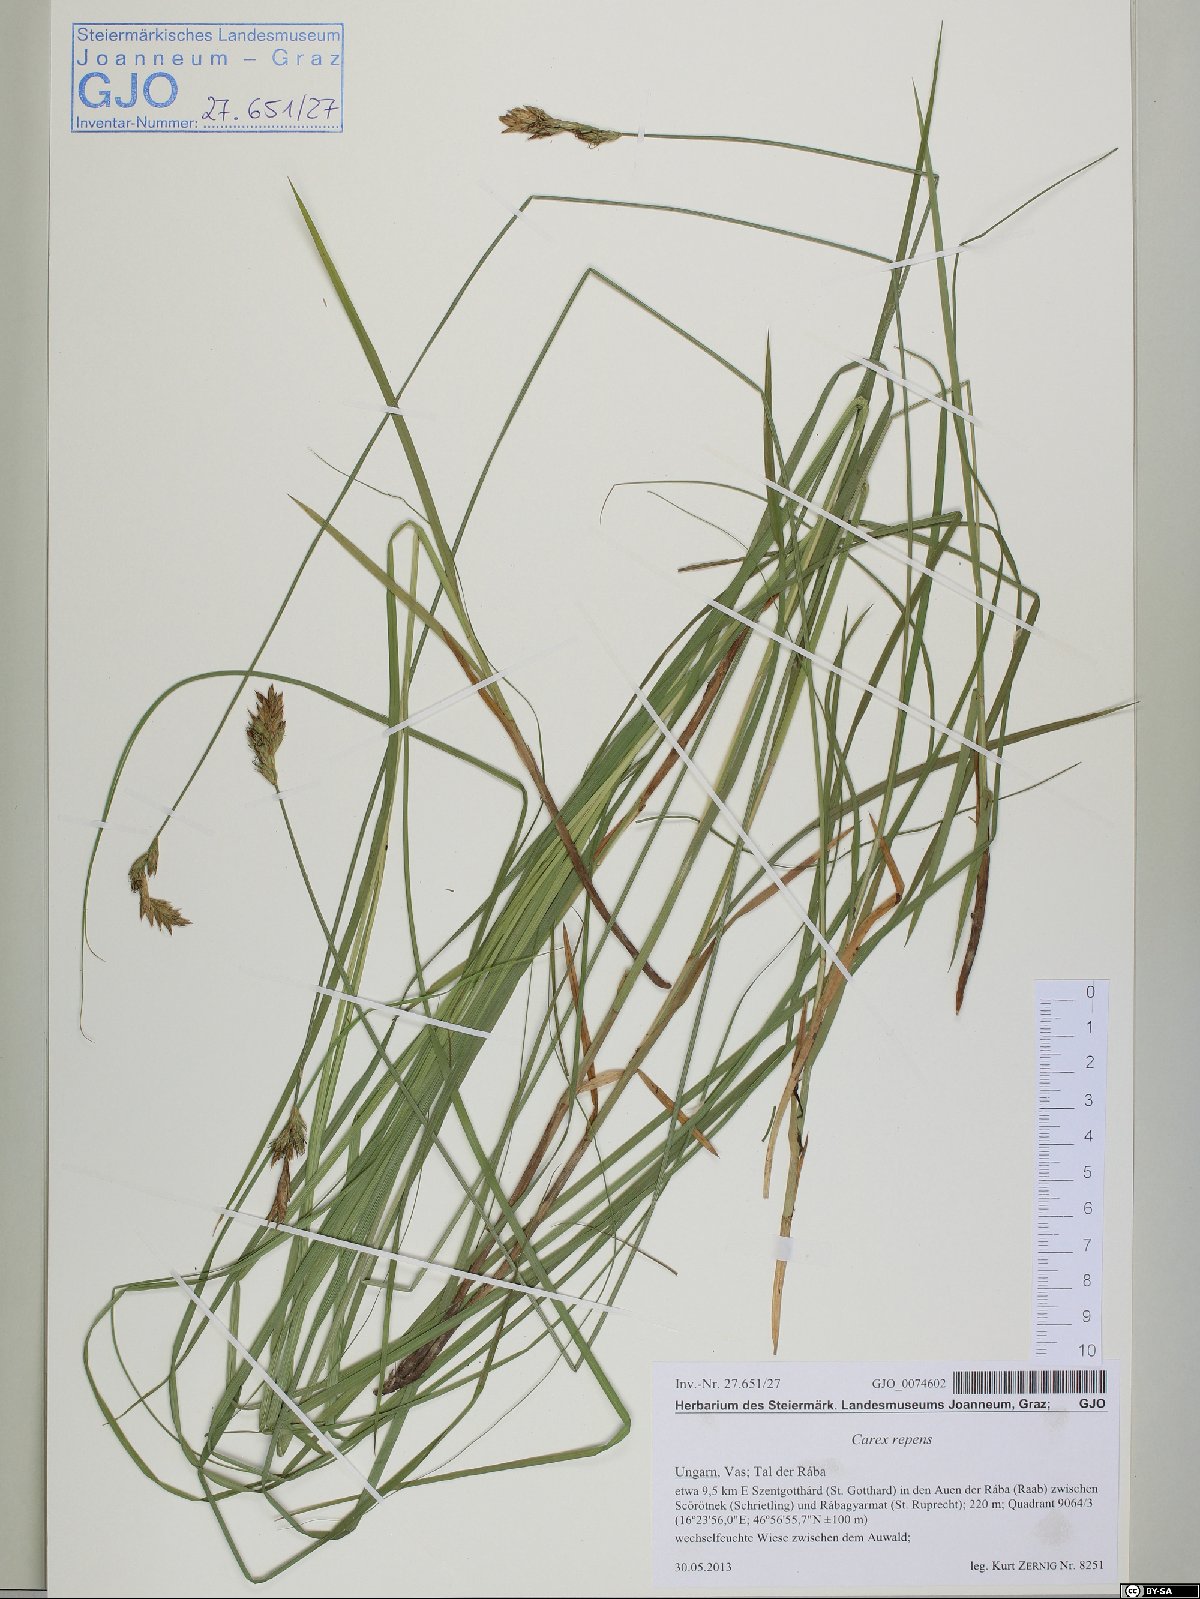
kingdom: Plantae
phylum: Tracheophyta
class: Liliopsida
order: Poales
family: Cyperaceae
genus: Carex
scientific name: Carex repens
